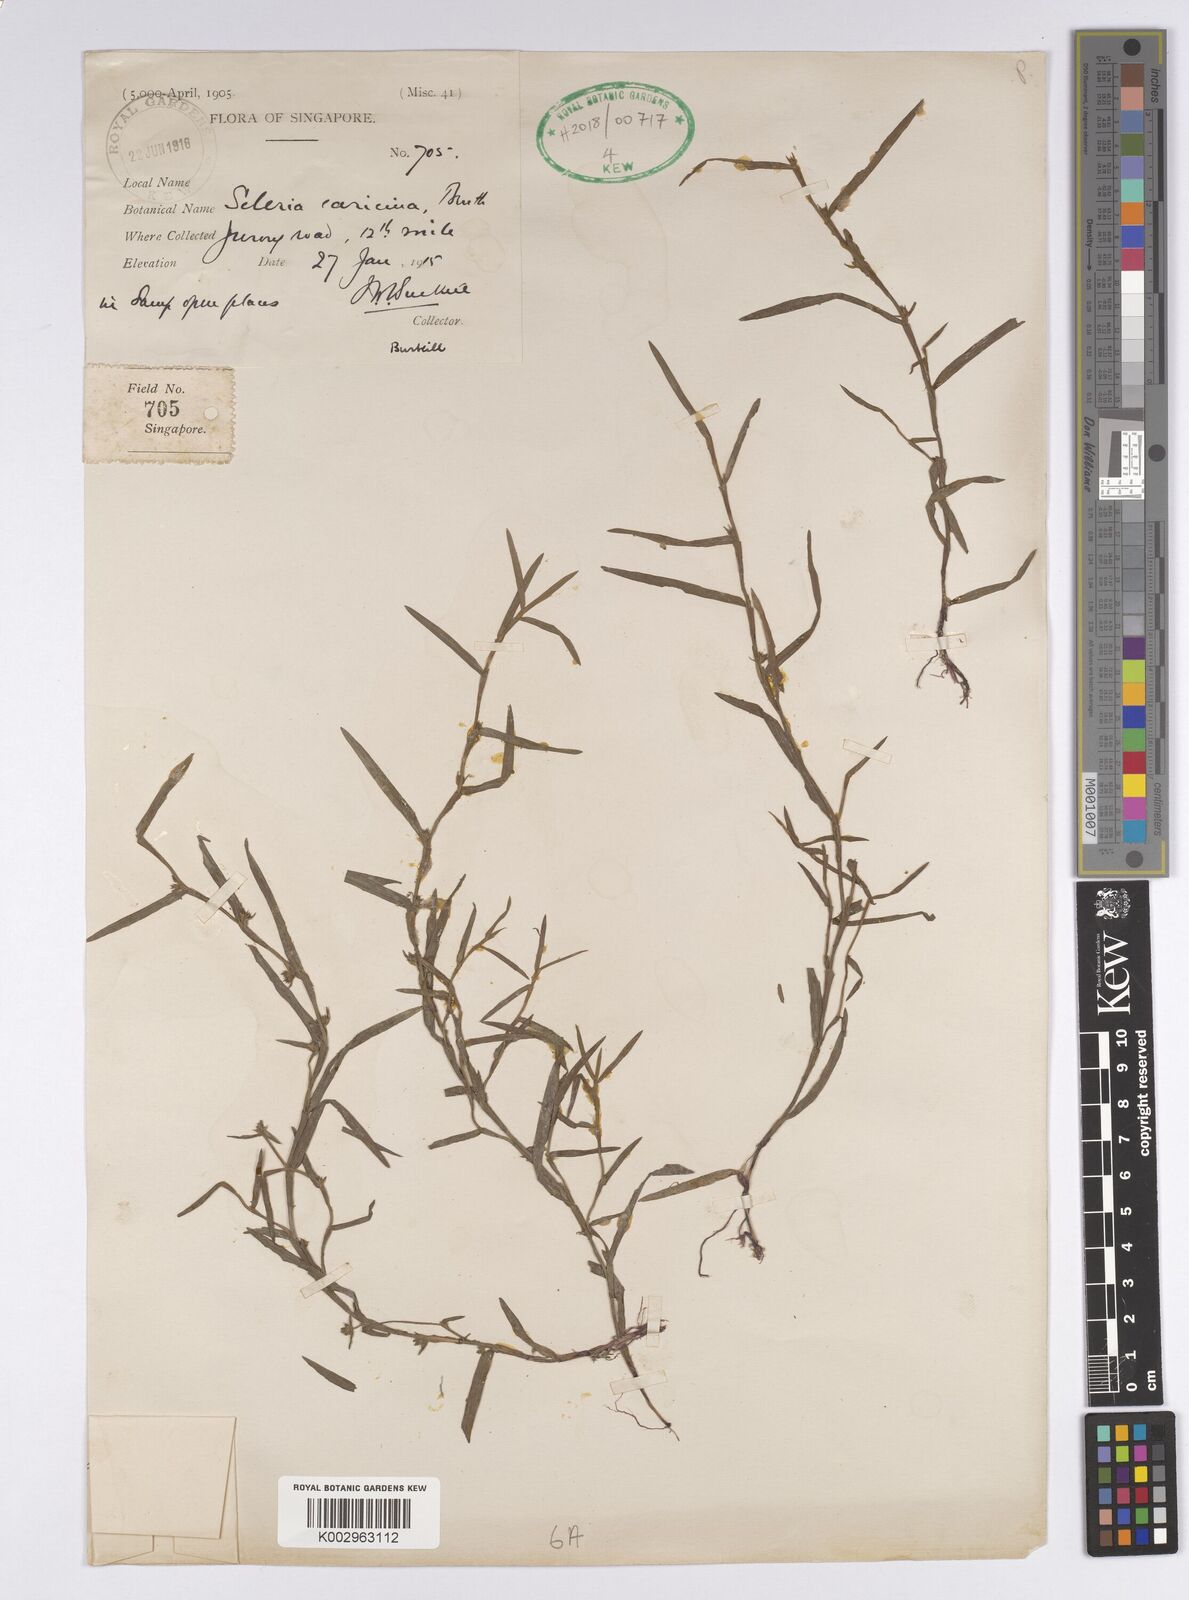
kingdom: Plantae
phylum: Tracheophyta
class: Liliopsida
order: Poales
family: Cyperaceae
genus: Diplacrum
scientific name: Diplacrum caricinum
